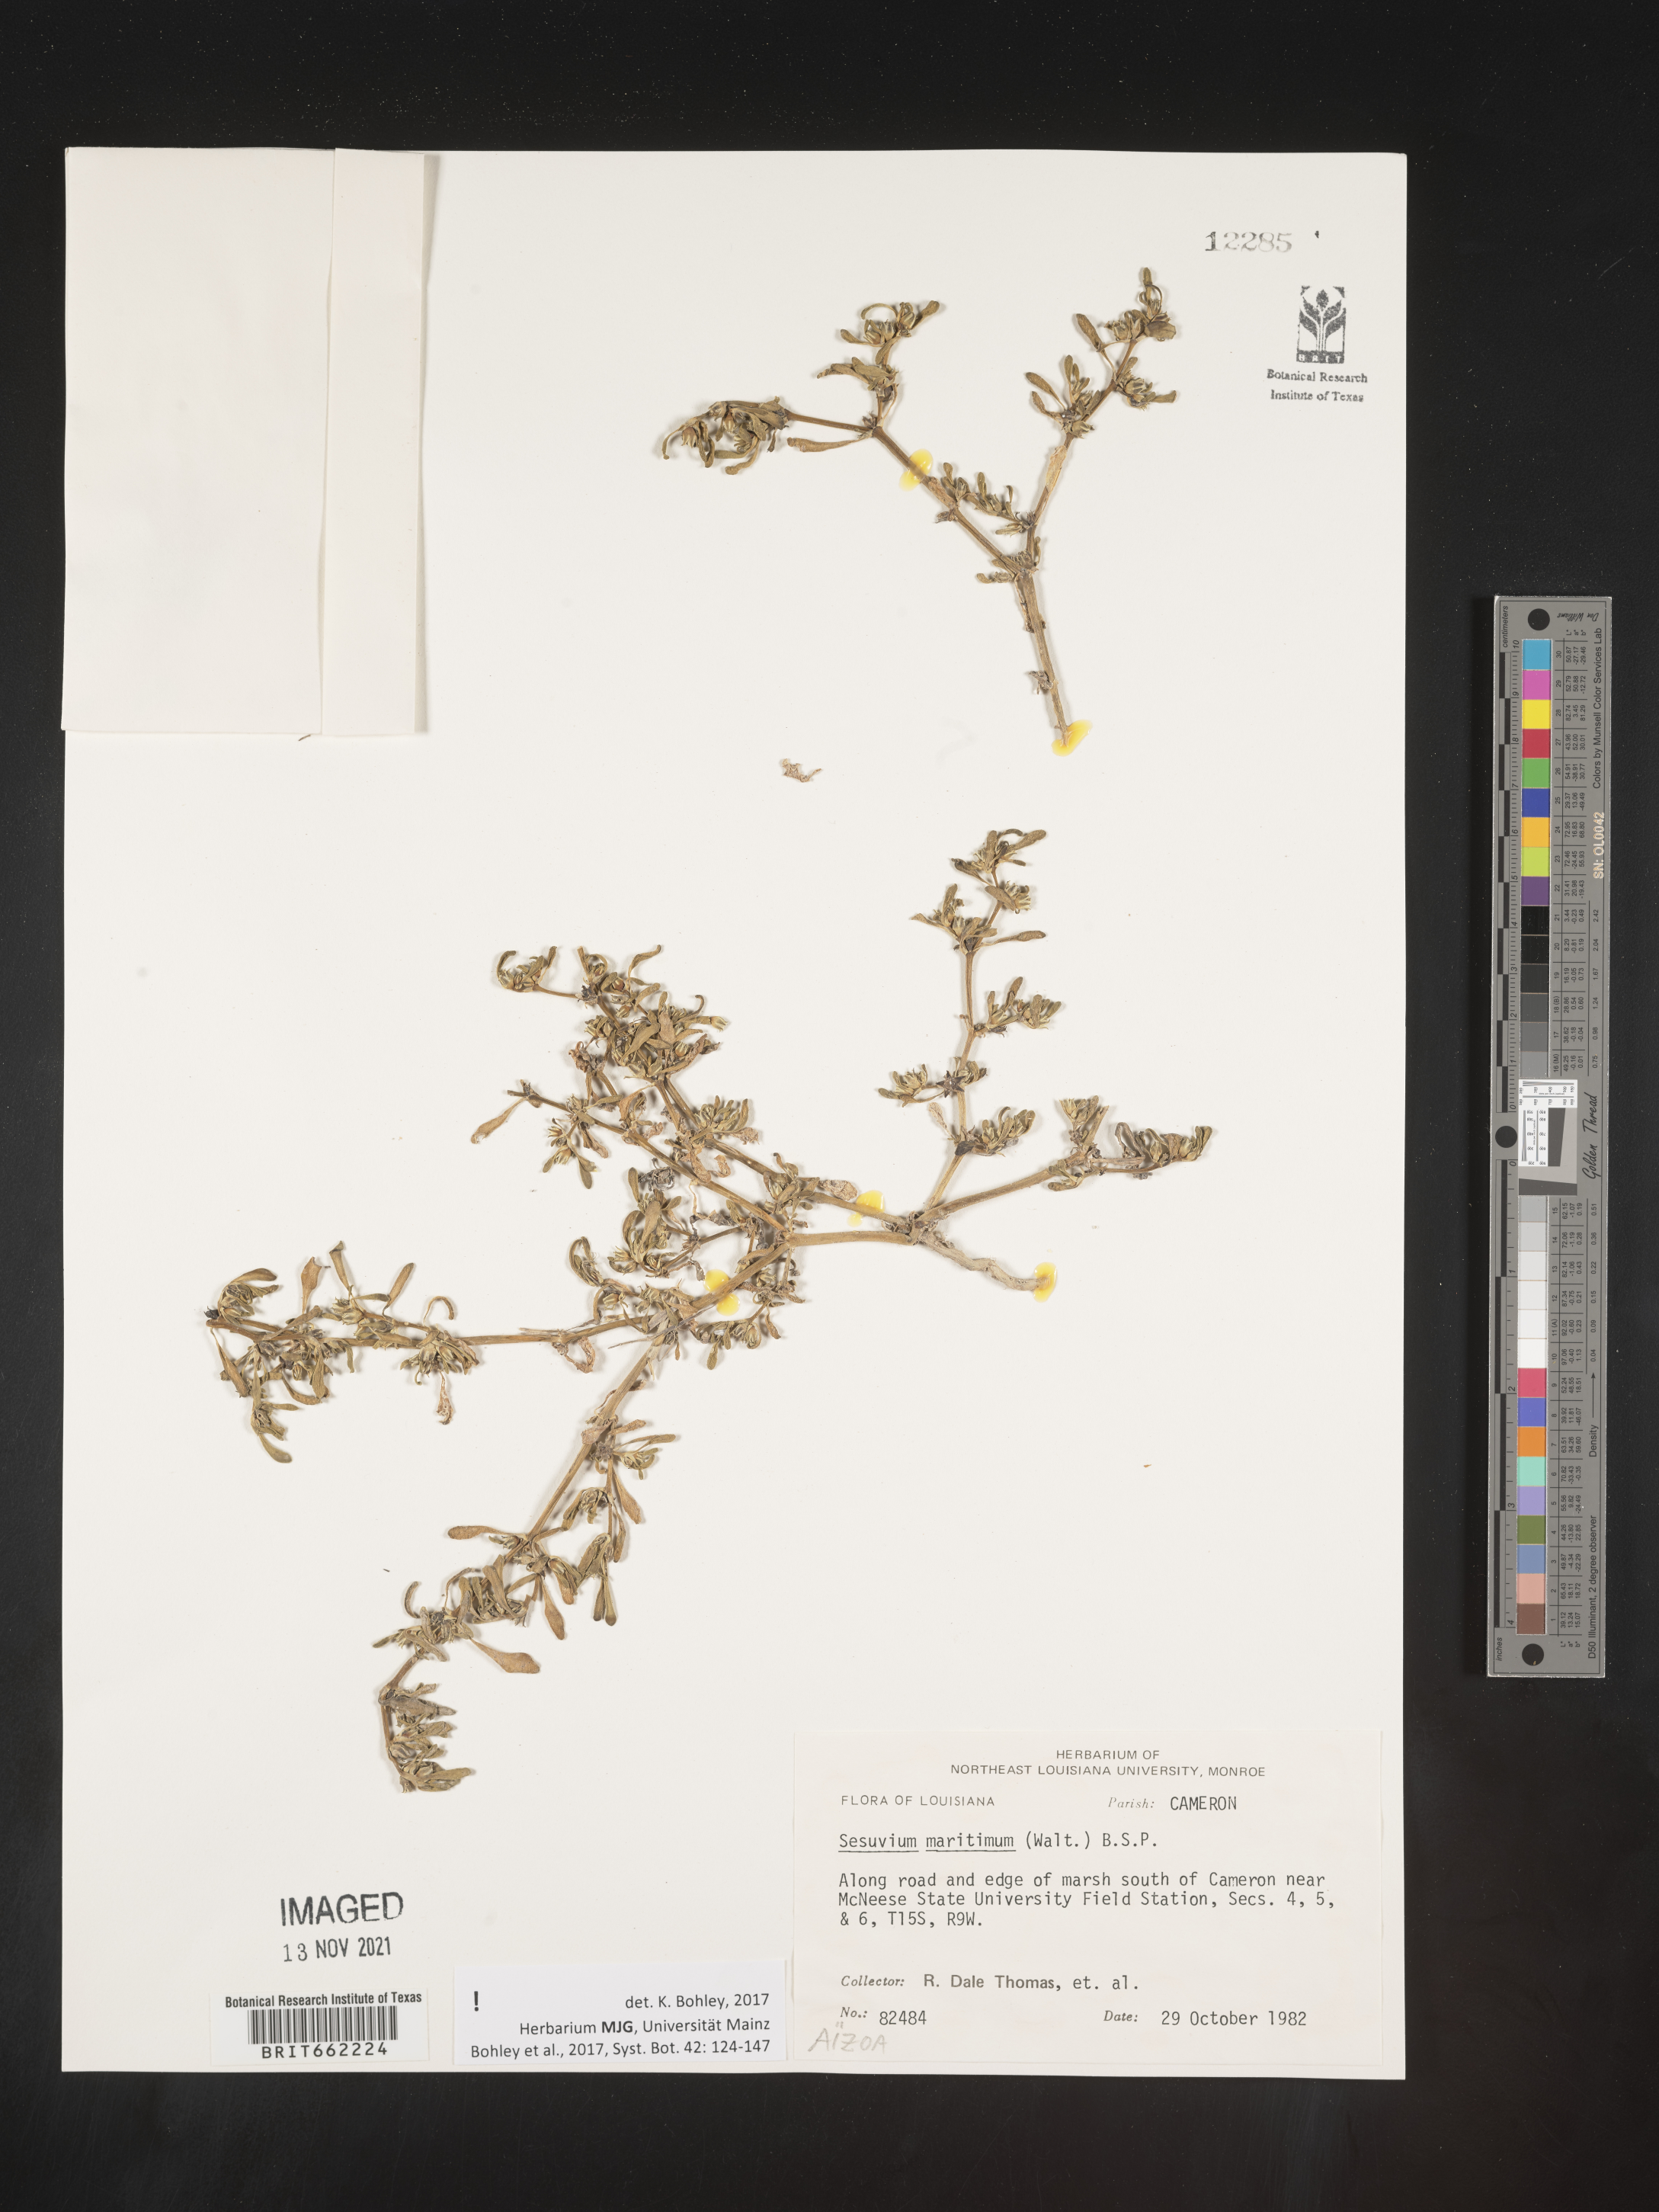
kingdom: Plantae
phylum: Tracheophyta
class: Magnoliopsida
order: Caryophyllales
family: Aizoaceae
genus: Sesuvium
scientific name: Sesuvium
